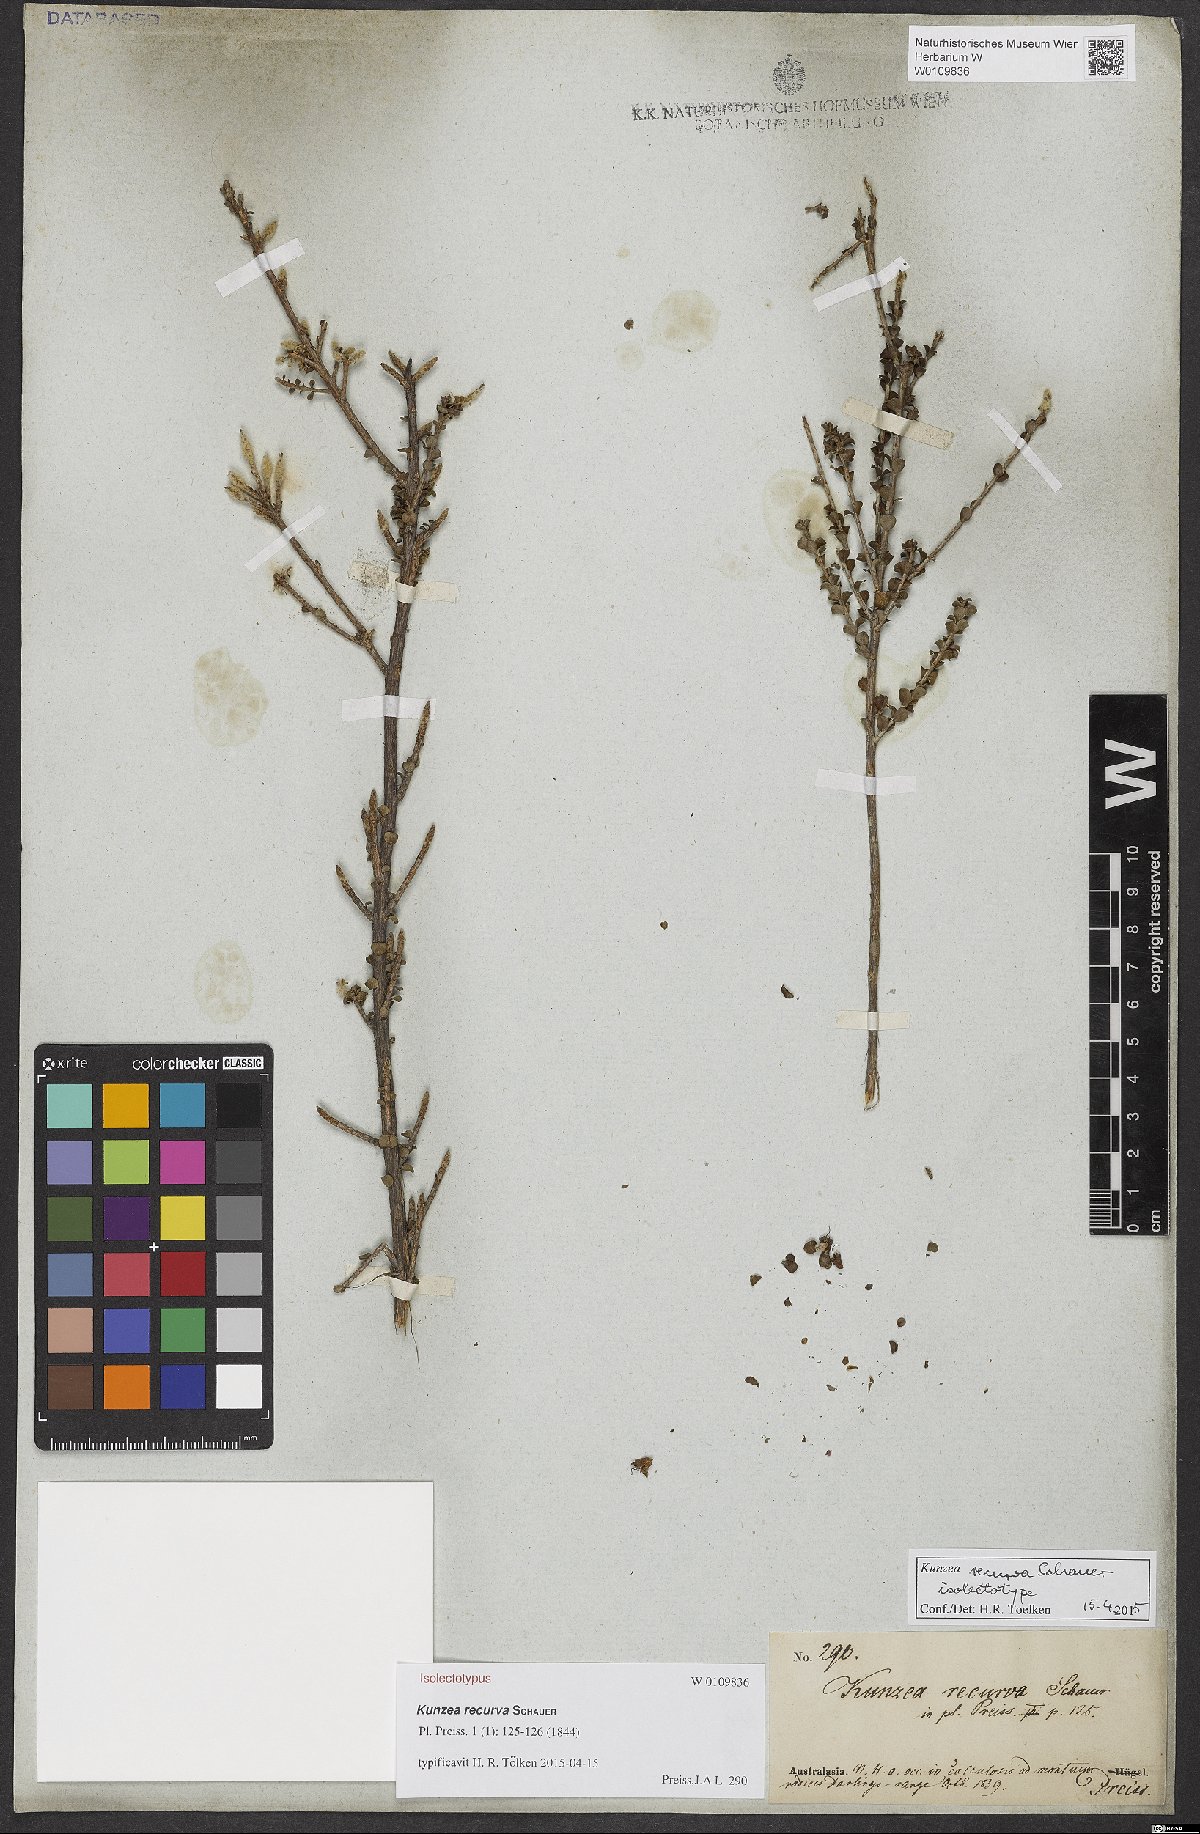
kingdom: Plantae
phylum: Tracheophyta
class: Magnoliopsida
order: Myrtales
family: Myrtaceae
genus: Kunzea
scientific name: Kunzea recurva
